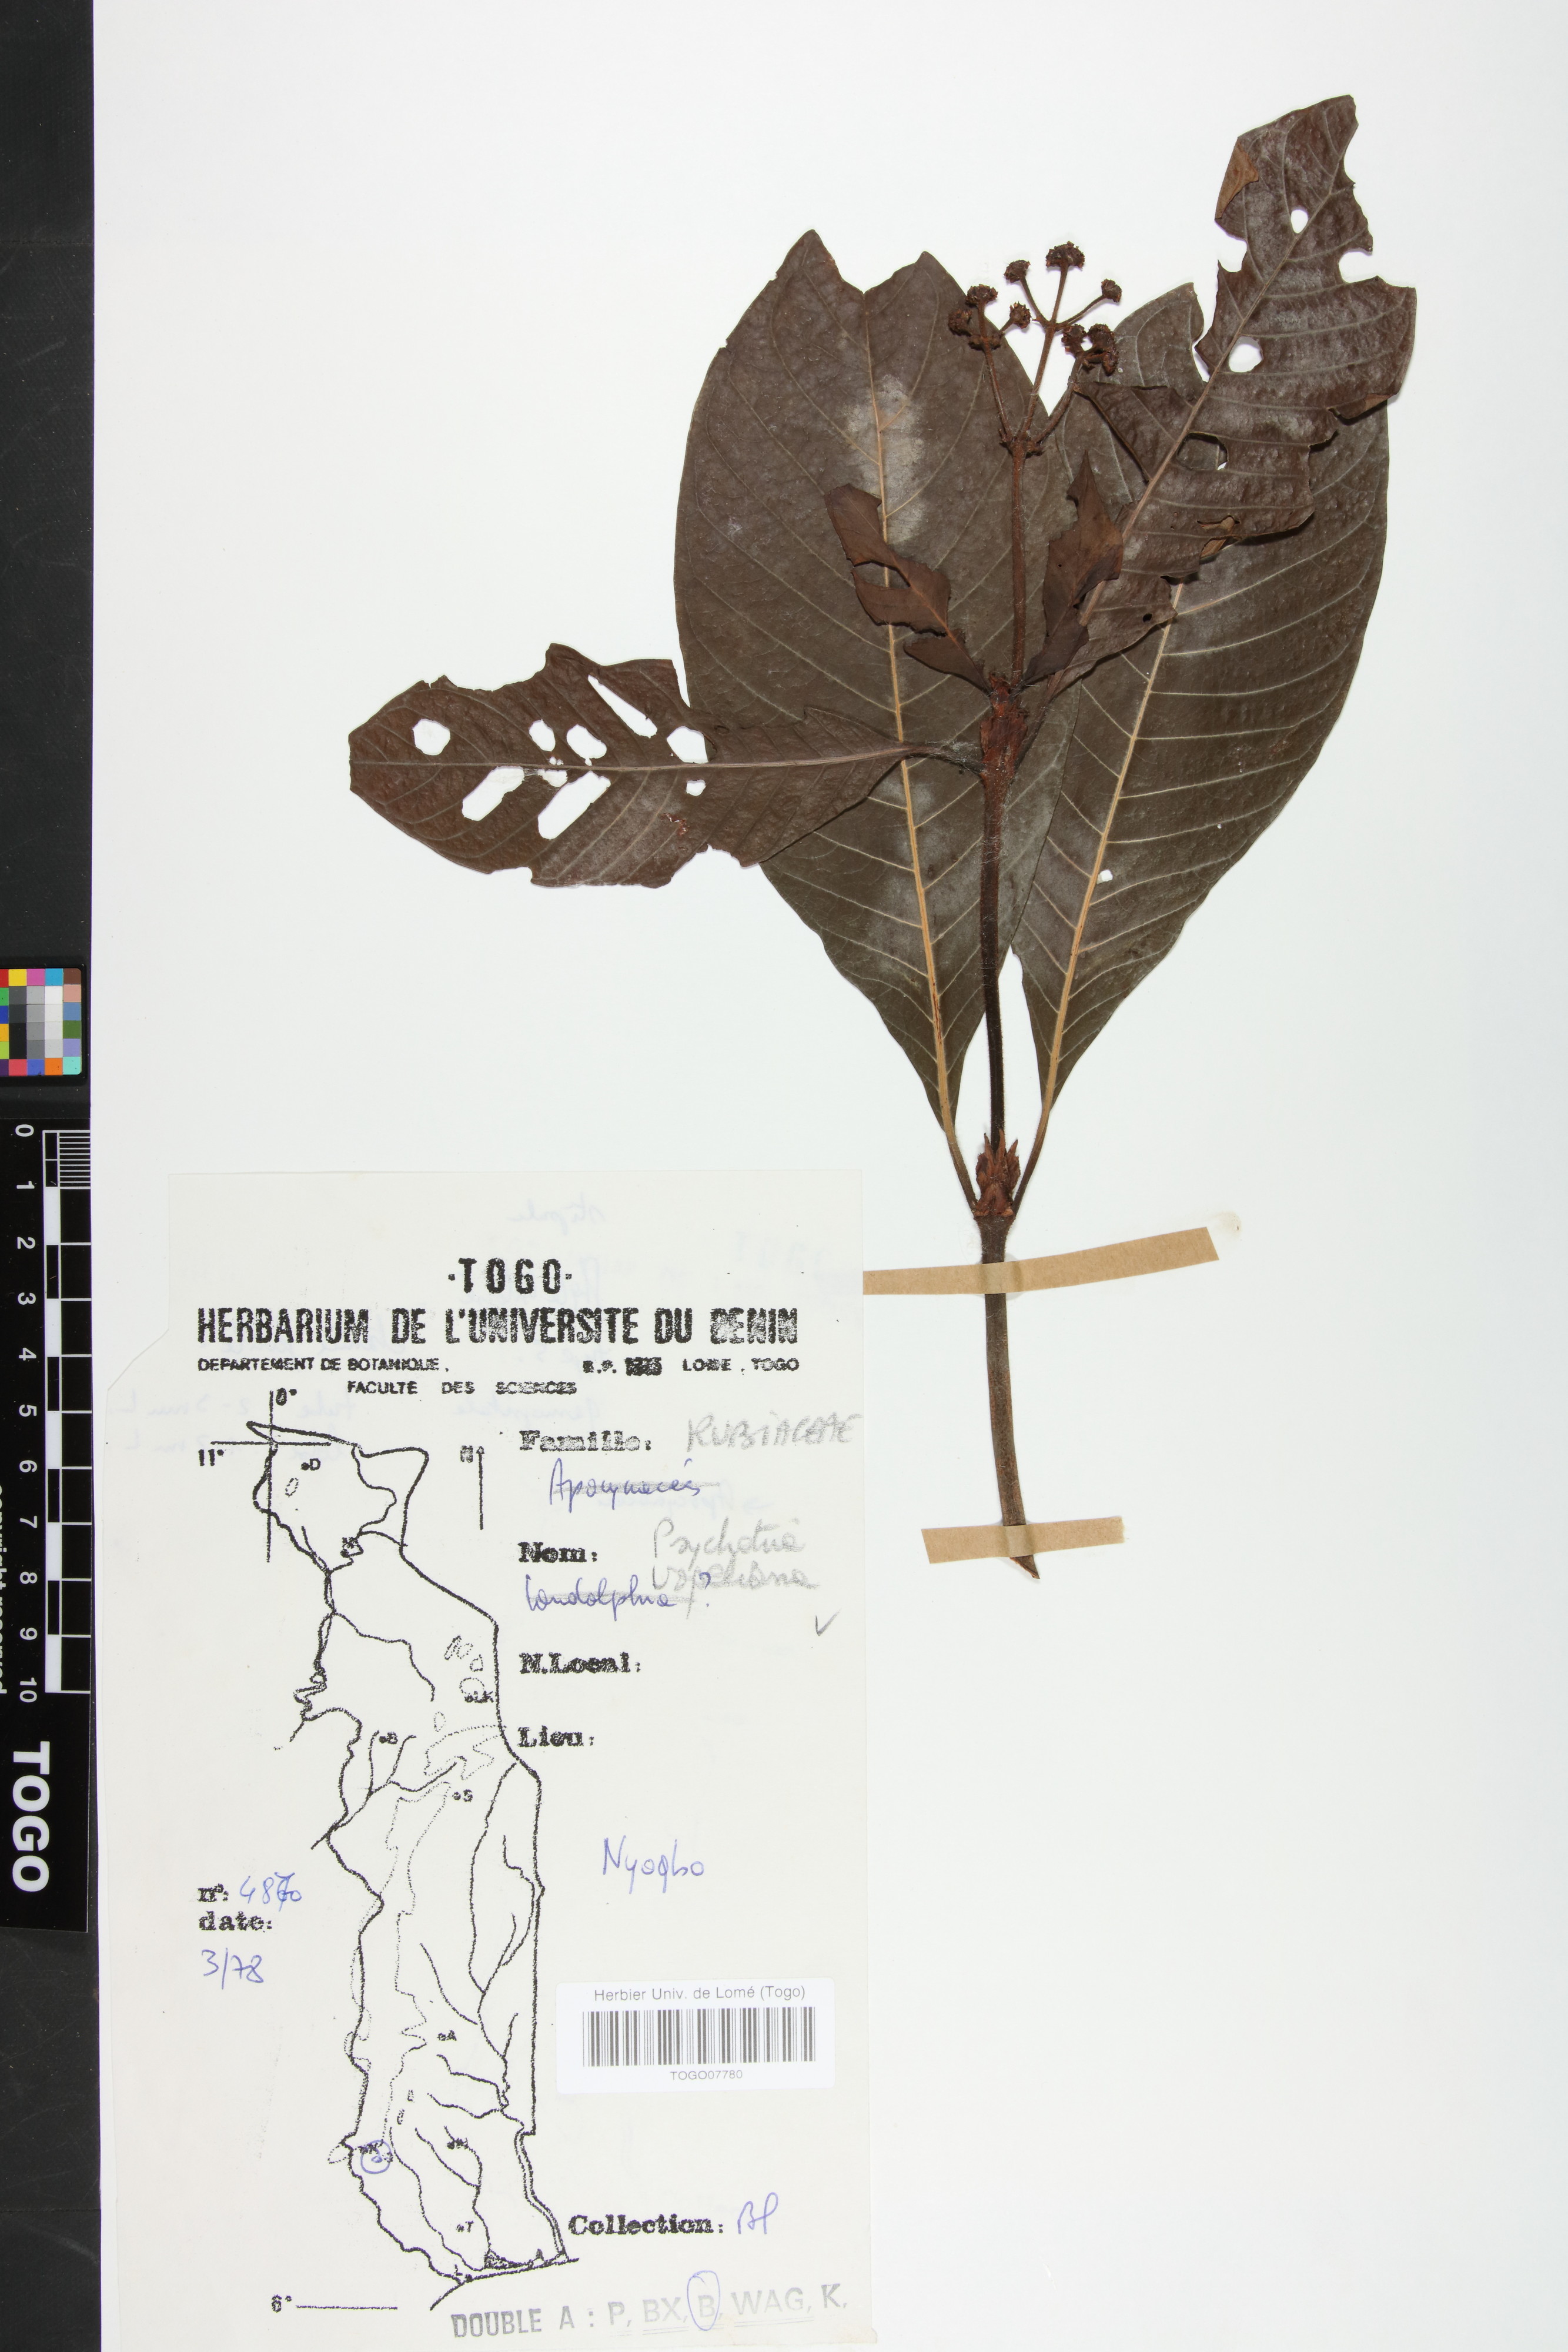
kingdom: Plantae
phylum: Tracheophyta
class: Magnoliopsida
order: Gentianales
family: Rubiaceae
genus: Psychotria
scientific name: Psychotria vogeliana
